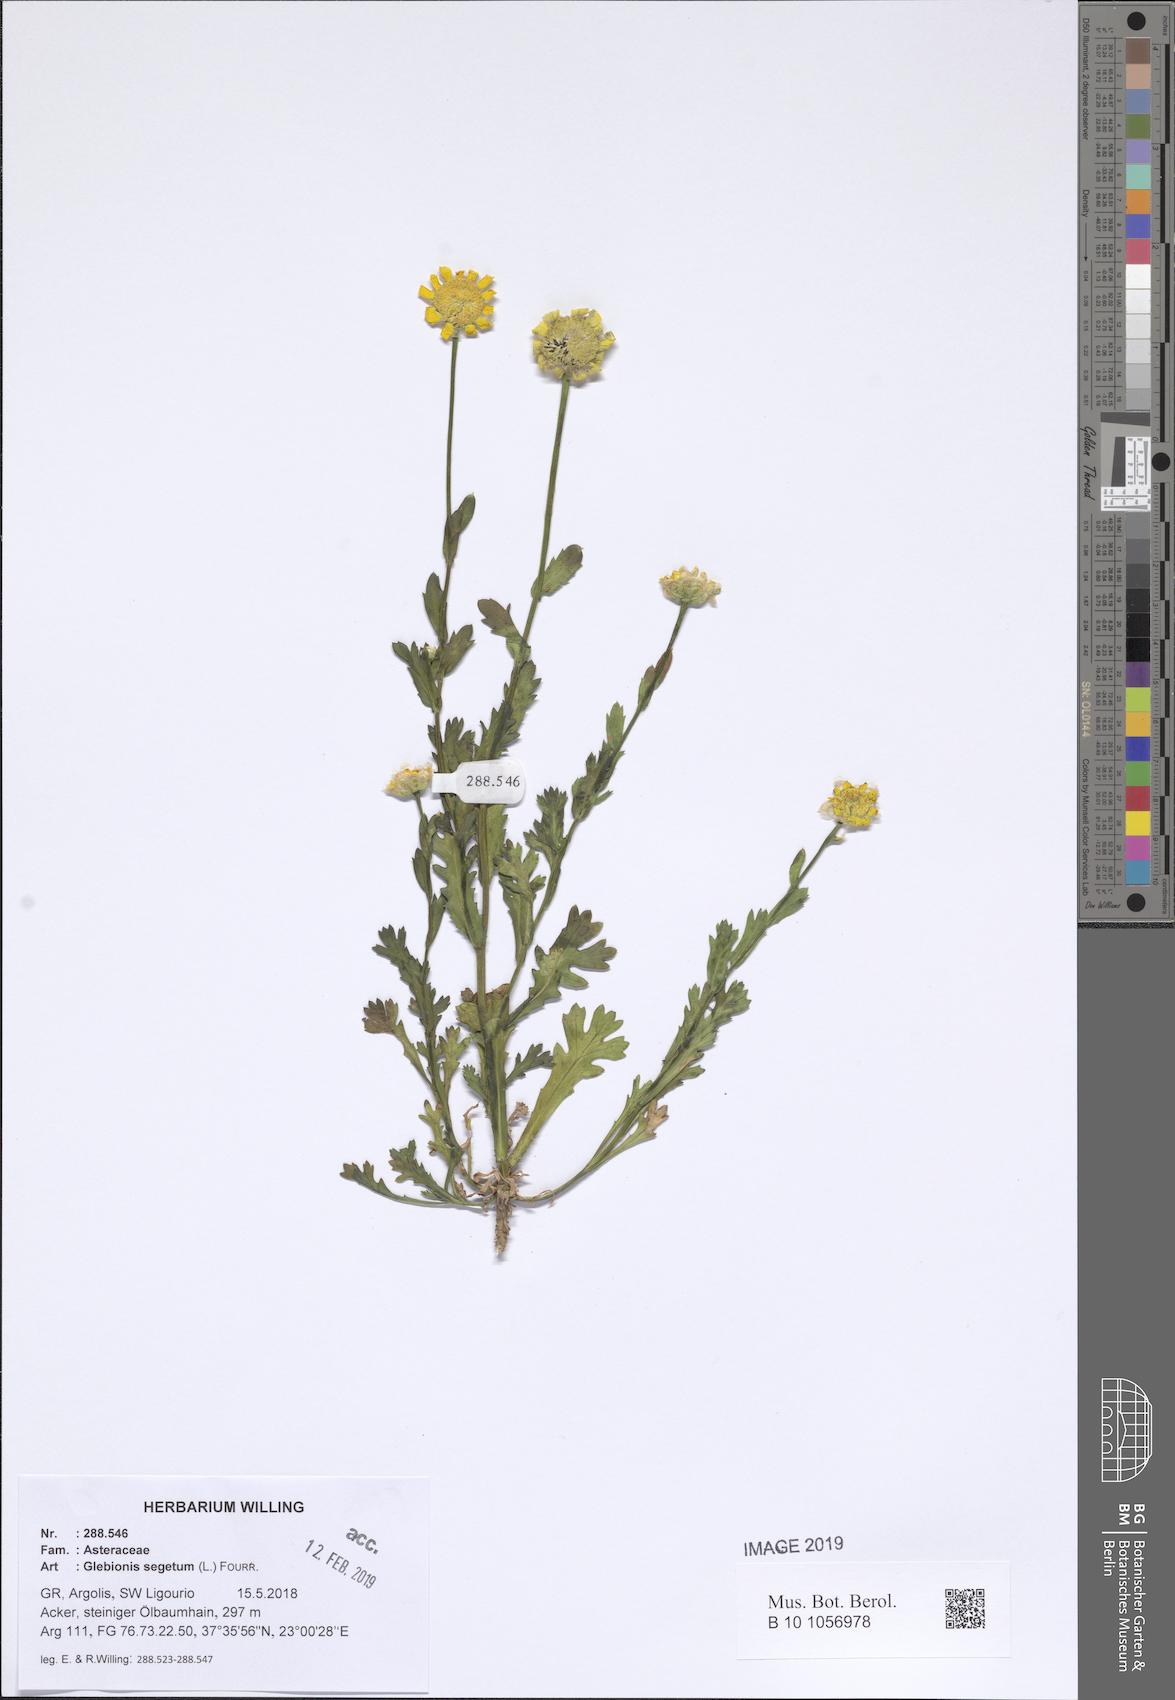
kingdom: Plantae
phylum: Tracheophyta
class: Magnoliopsida
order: Asterales
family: Asteraceae
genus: Glebionis
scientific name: Glebionis segetum
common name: Corndaisy
